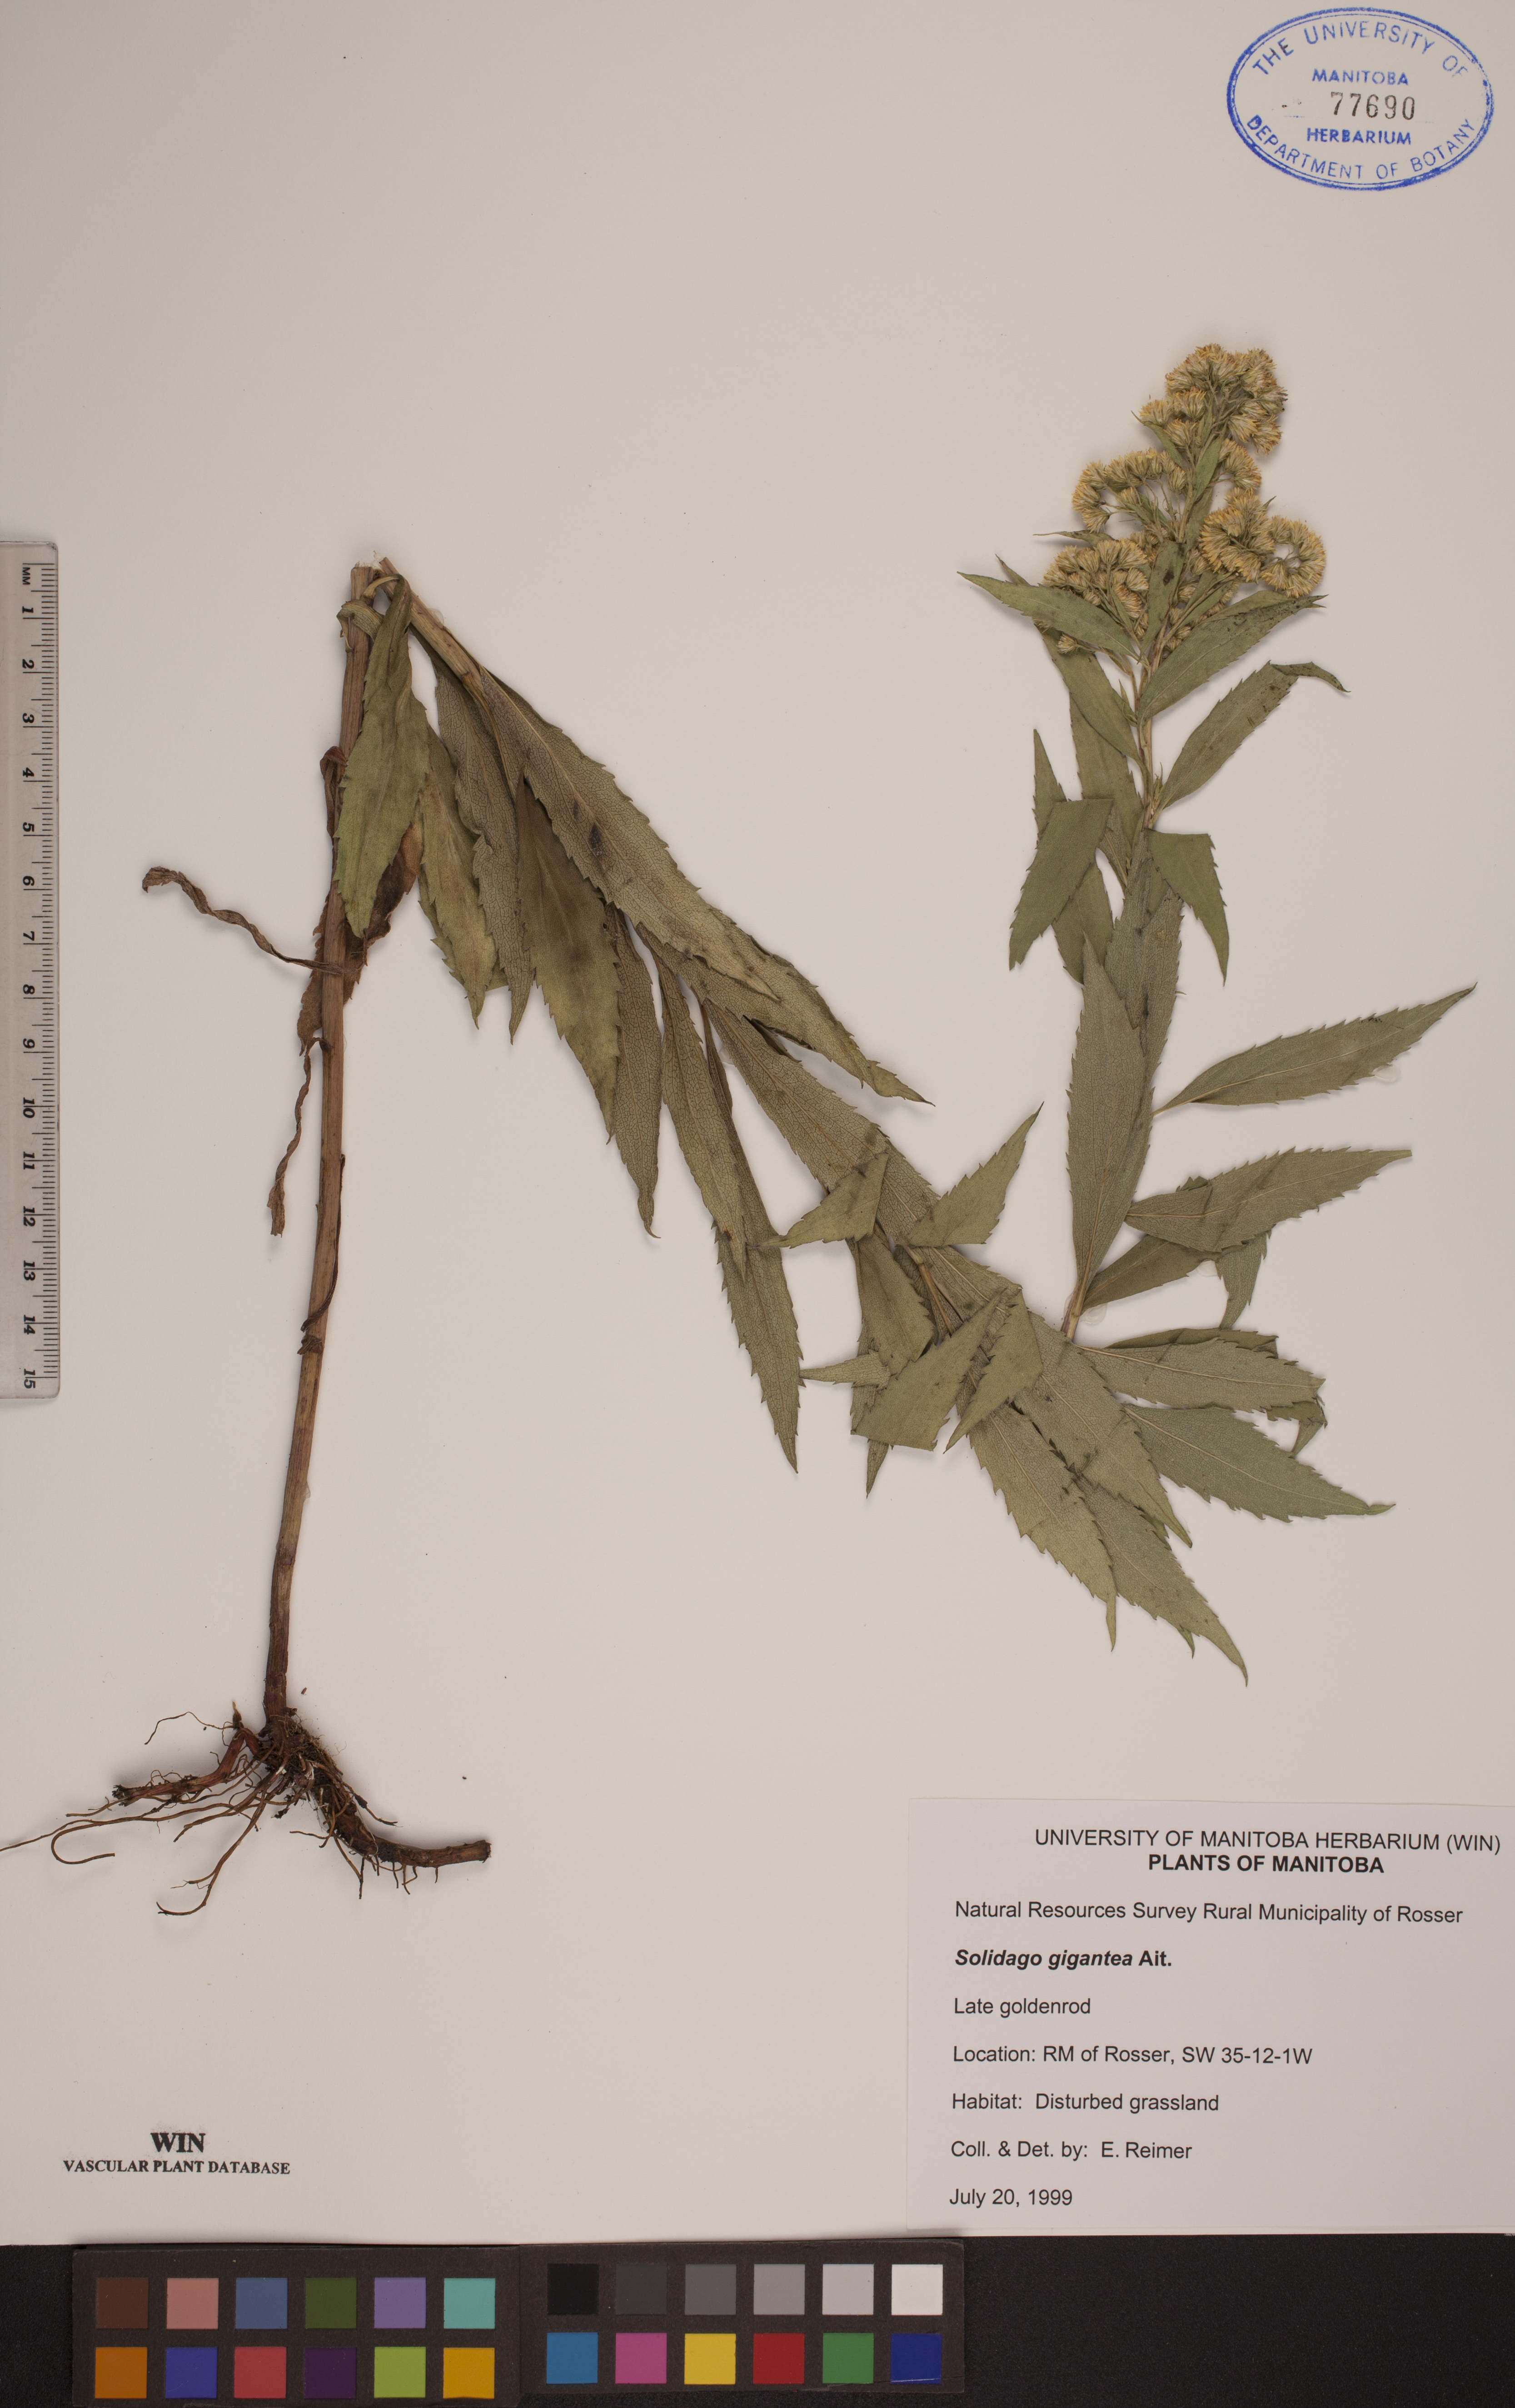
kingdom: Plantae
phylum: Tracheophyta
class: Magnoliopsida
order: Asterales
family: Asteraceae
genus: Solidago
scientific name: Solidago gigantea
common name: Giant goldenrod
